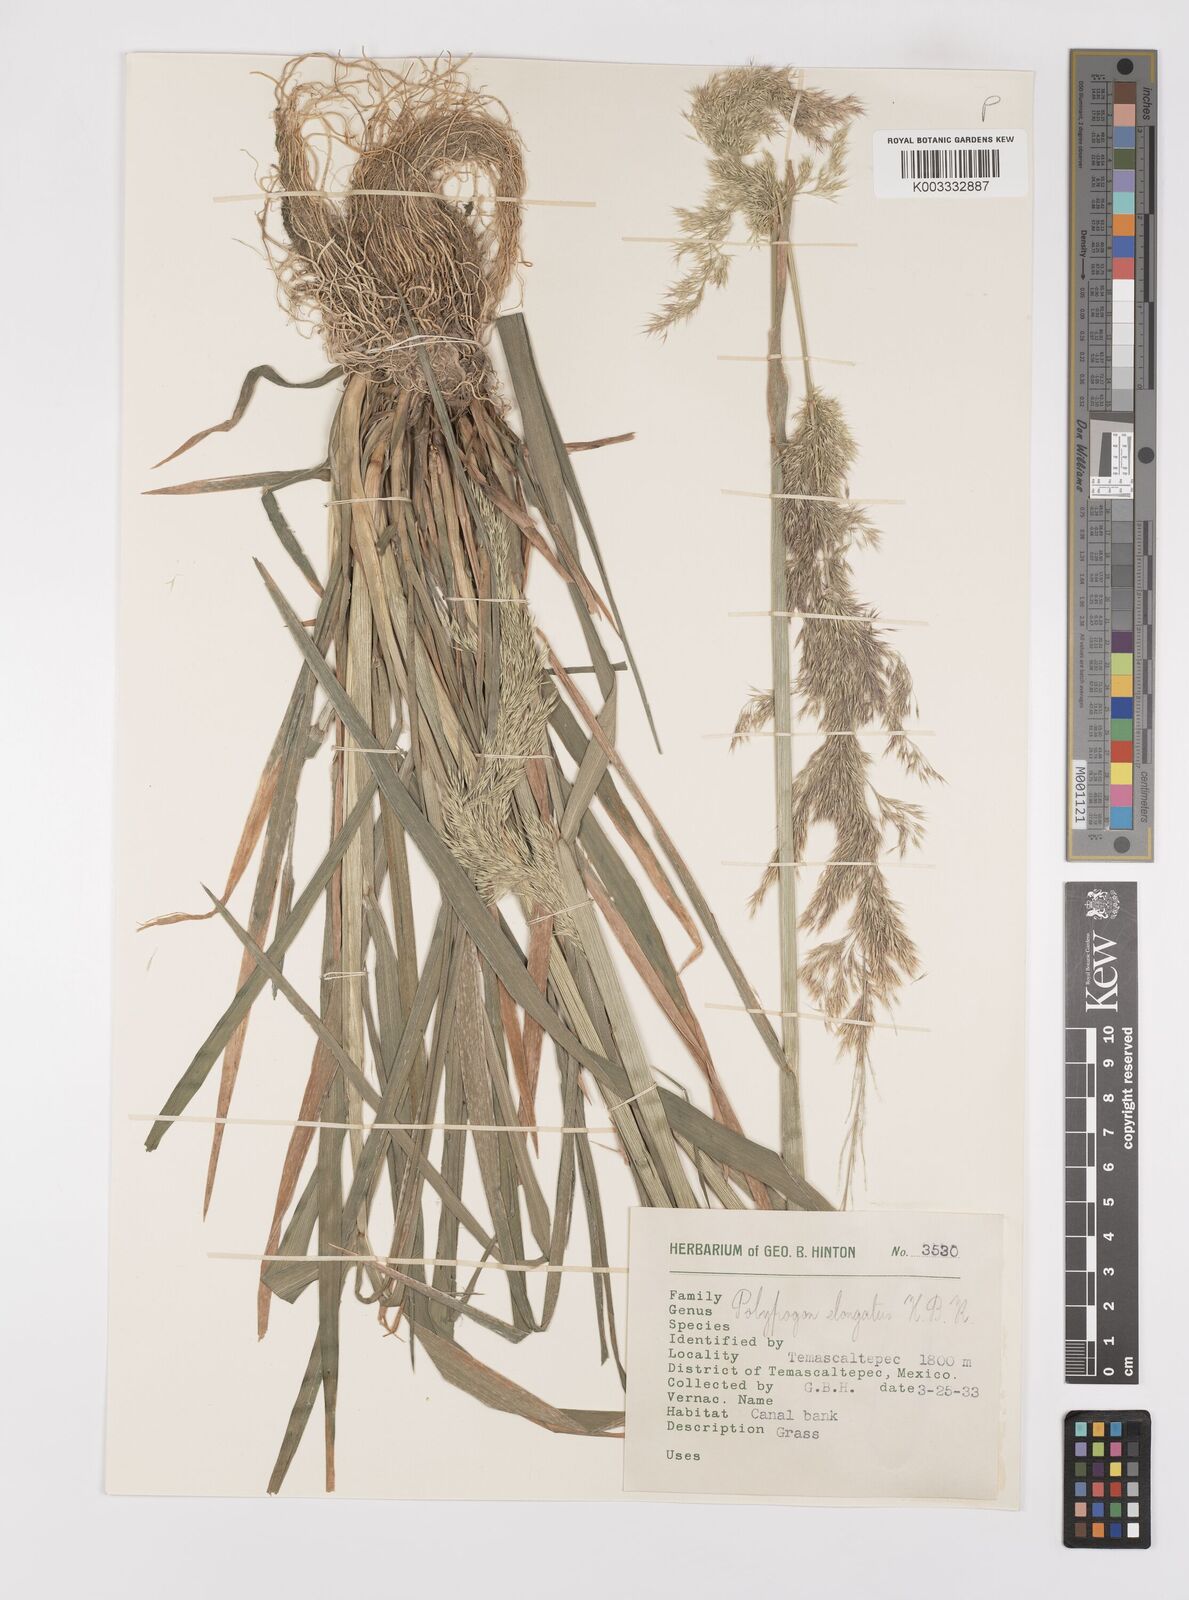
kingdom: Plantae
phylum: Tracheophyta
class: Liliopsida
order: Poales
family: Poaceae
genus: Polypogon
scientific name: Polypogon elongatus
